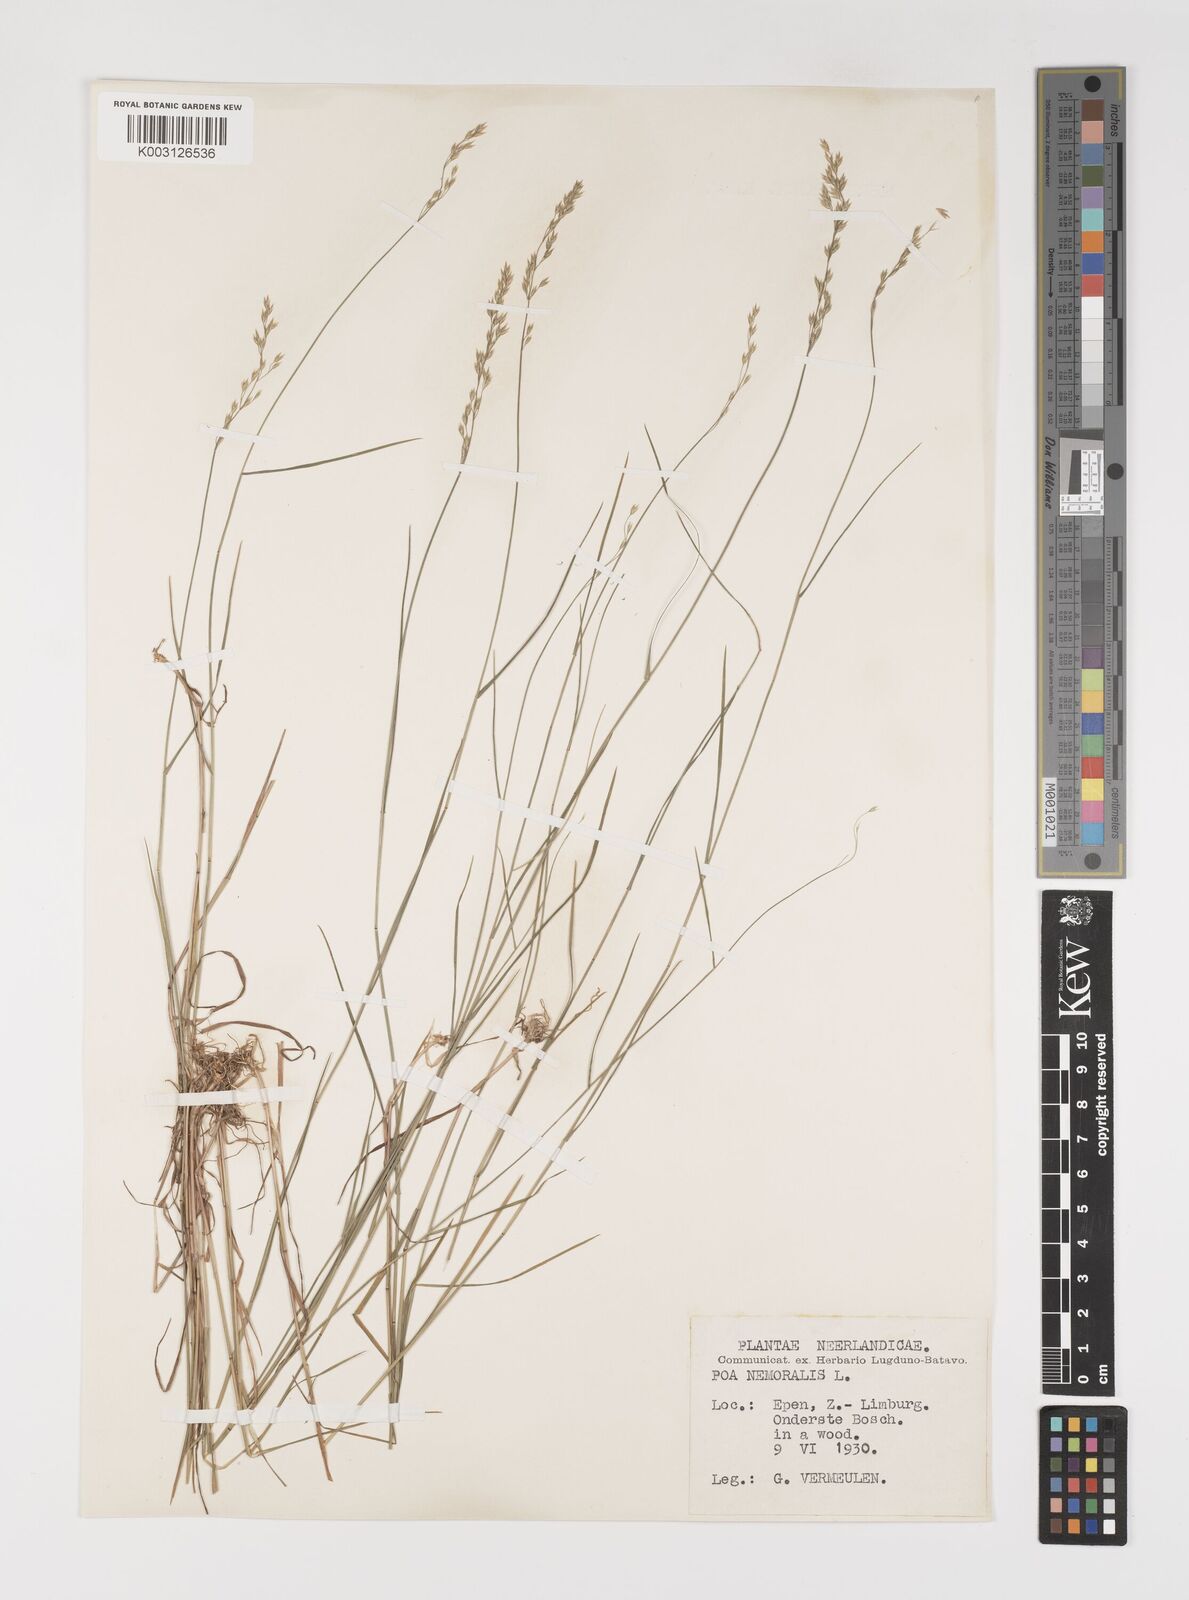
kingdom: Plantae
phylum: Tracheophyta
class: Liliopsida
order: Poales
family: Poaceae
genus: Poa
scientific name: Poa nemoralis
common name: Wood bluegrass
